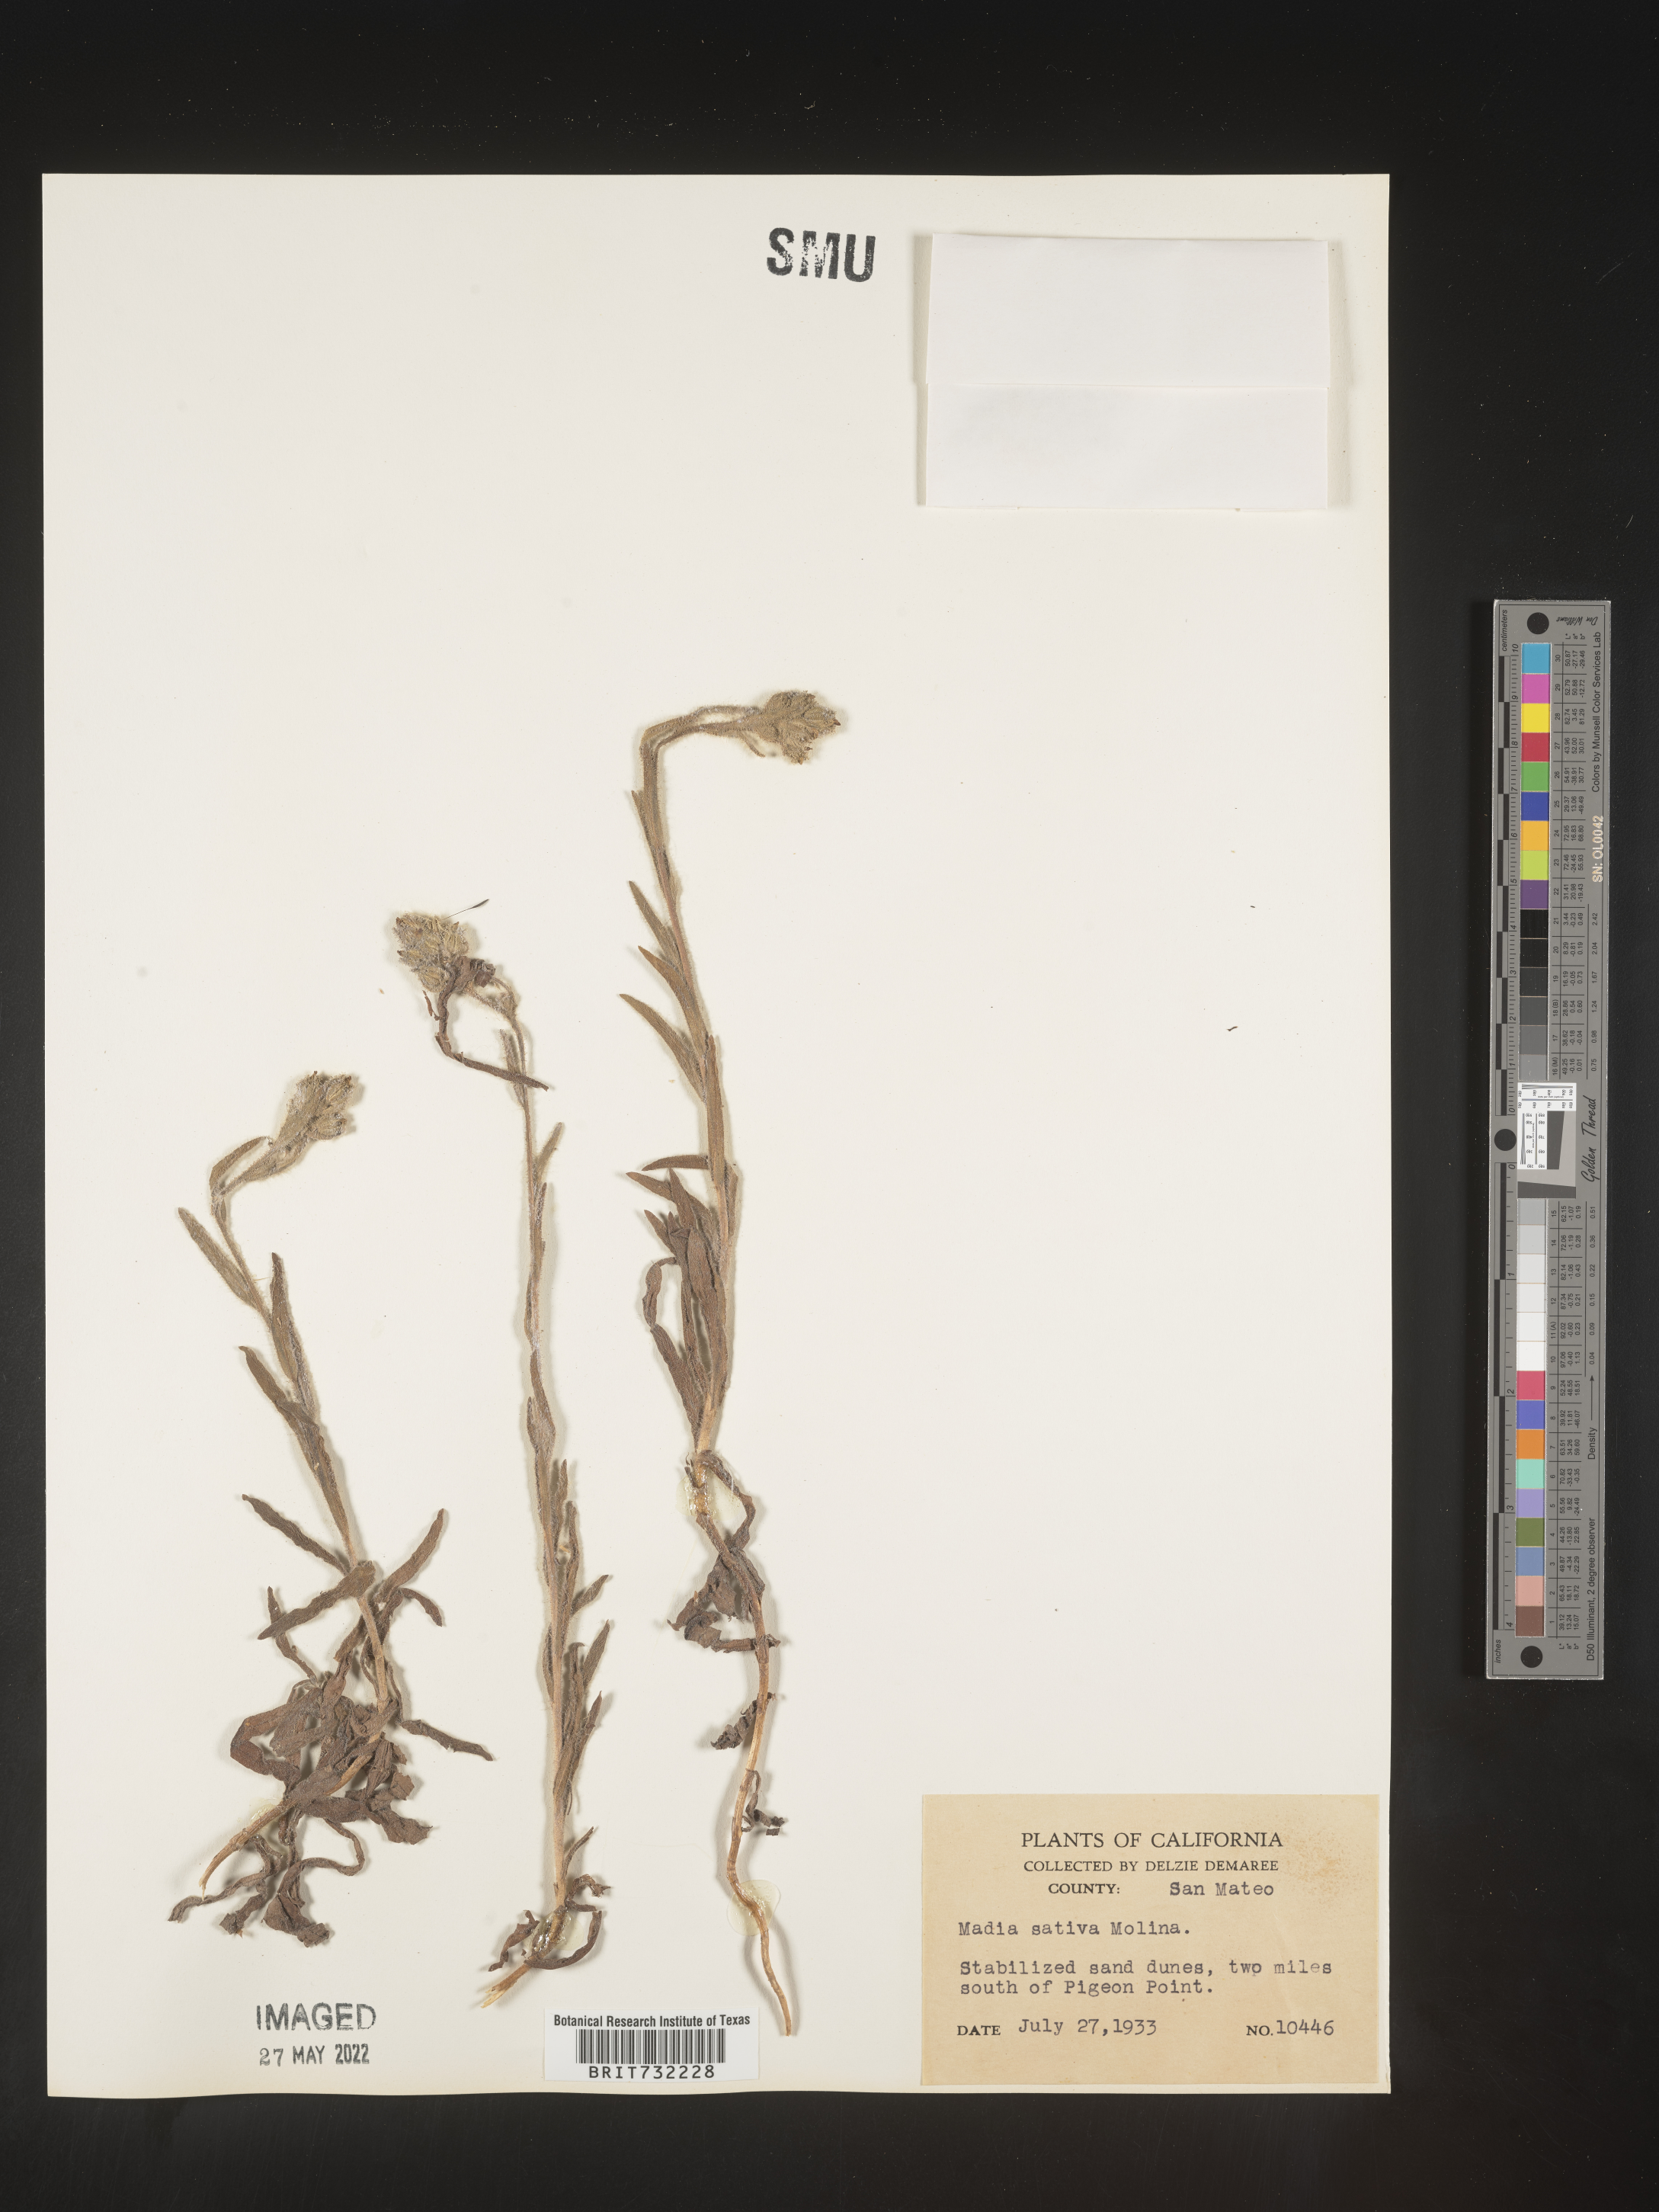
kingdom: Plantae
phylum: Tracheophyta
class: Magnoliopsida
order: Asterales
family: Asteraceae
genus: Madia
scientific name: Madia
